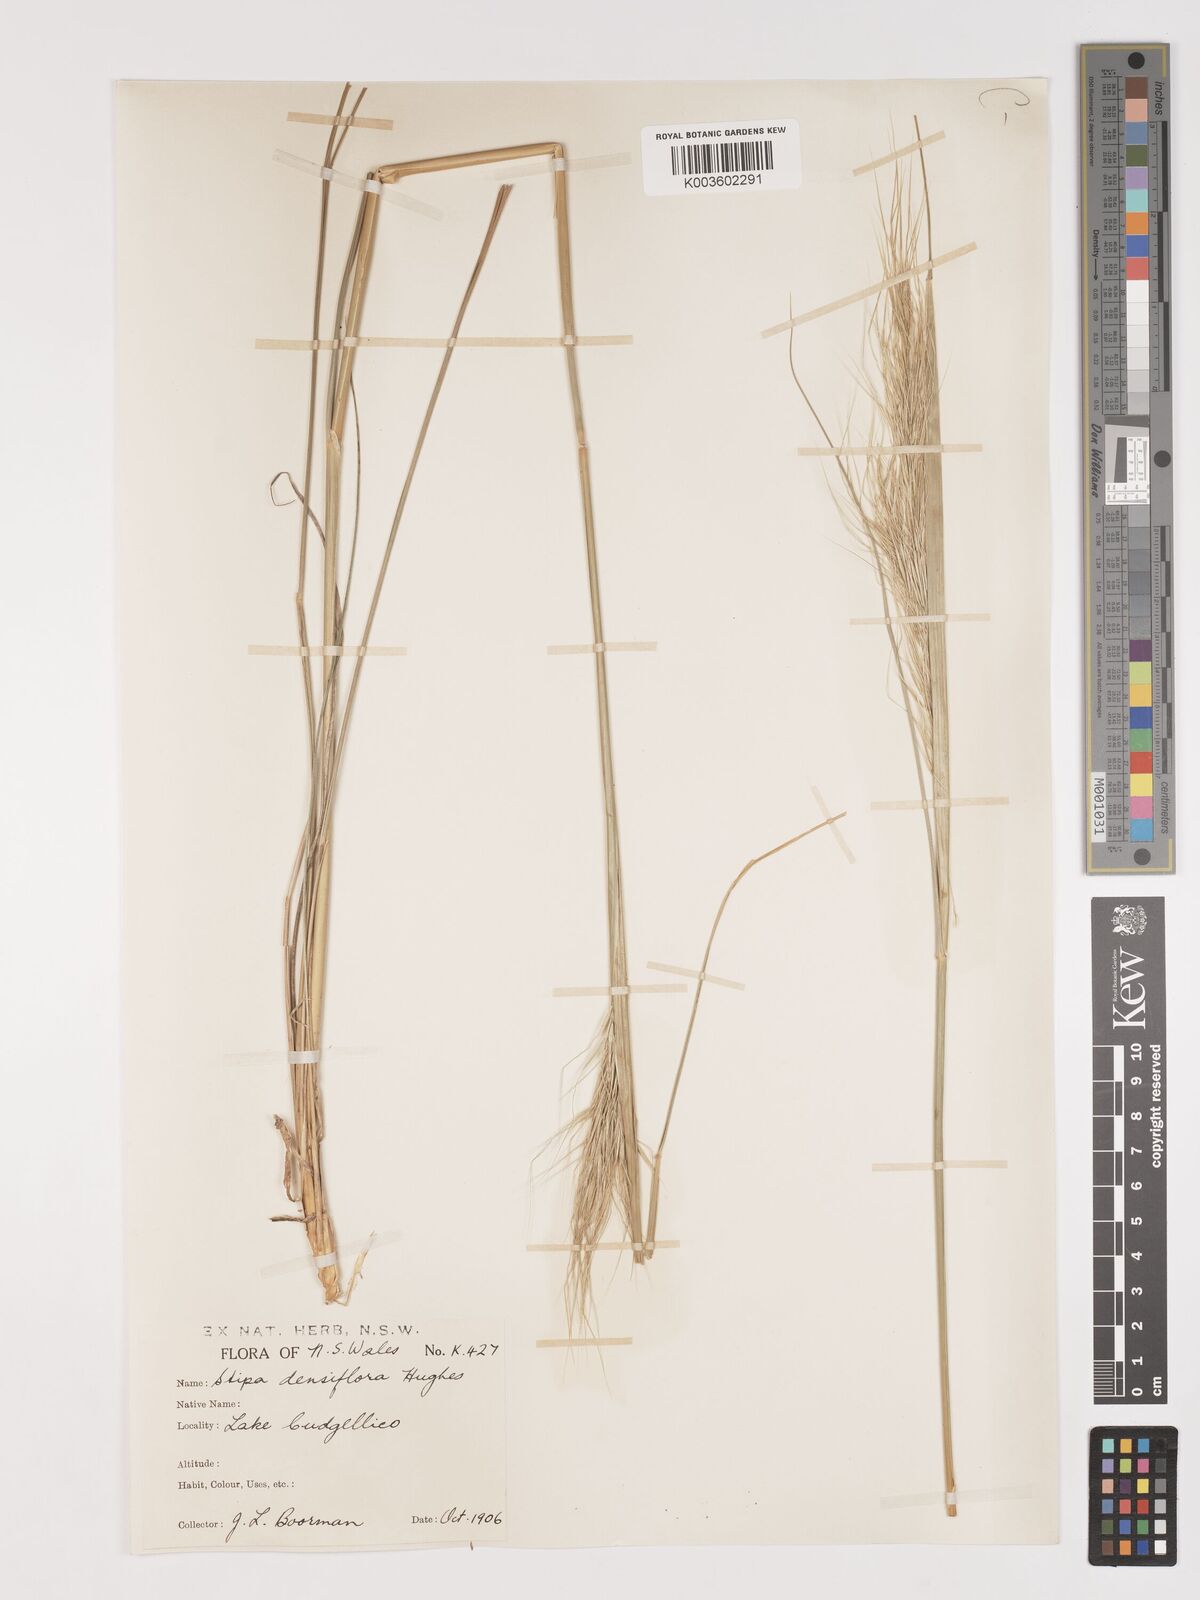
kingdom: Plantae
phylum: Tracheophyta
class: Liliopsida
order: Poales
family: Poaceae
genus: Stipa
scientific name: Stipa
